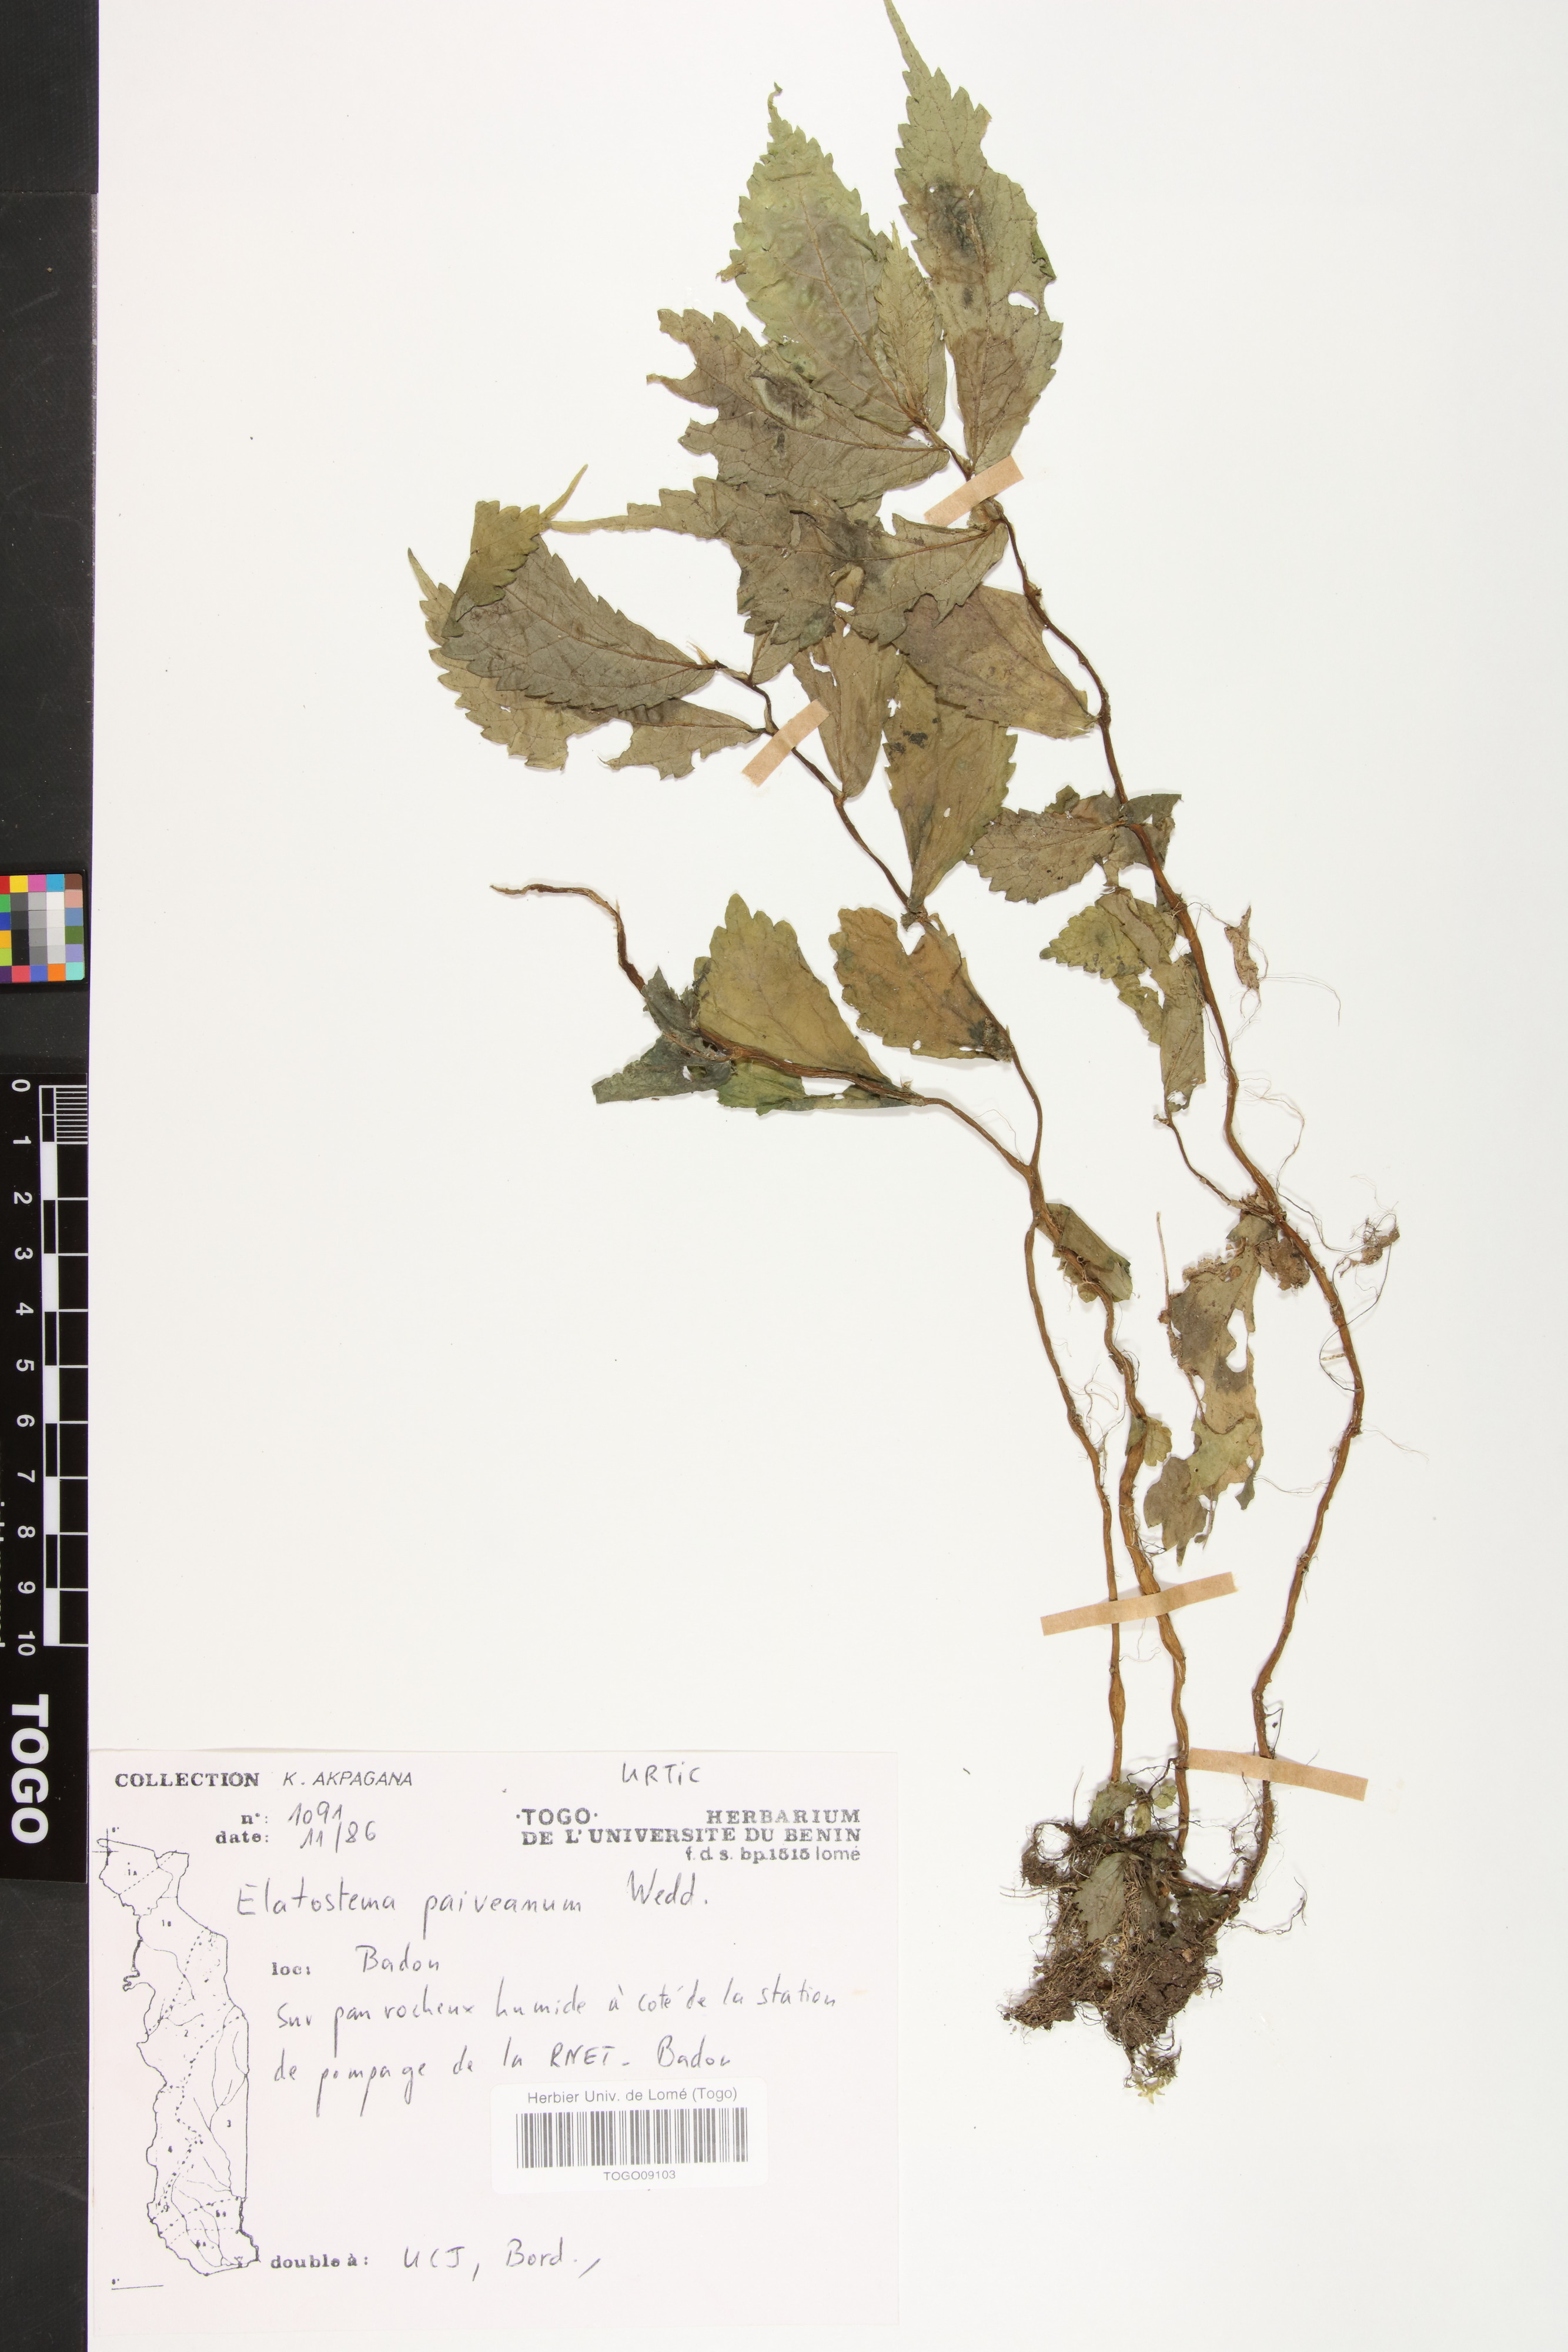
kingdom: Plantae
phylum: Tracheophyta
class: Magnoliopsida
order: Rosales
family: Urticaceae
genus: Elatostema
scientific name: Elatostema paivaeanum
